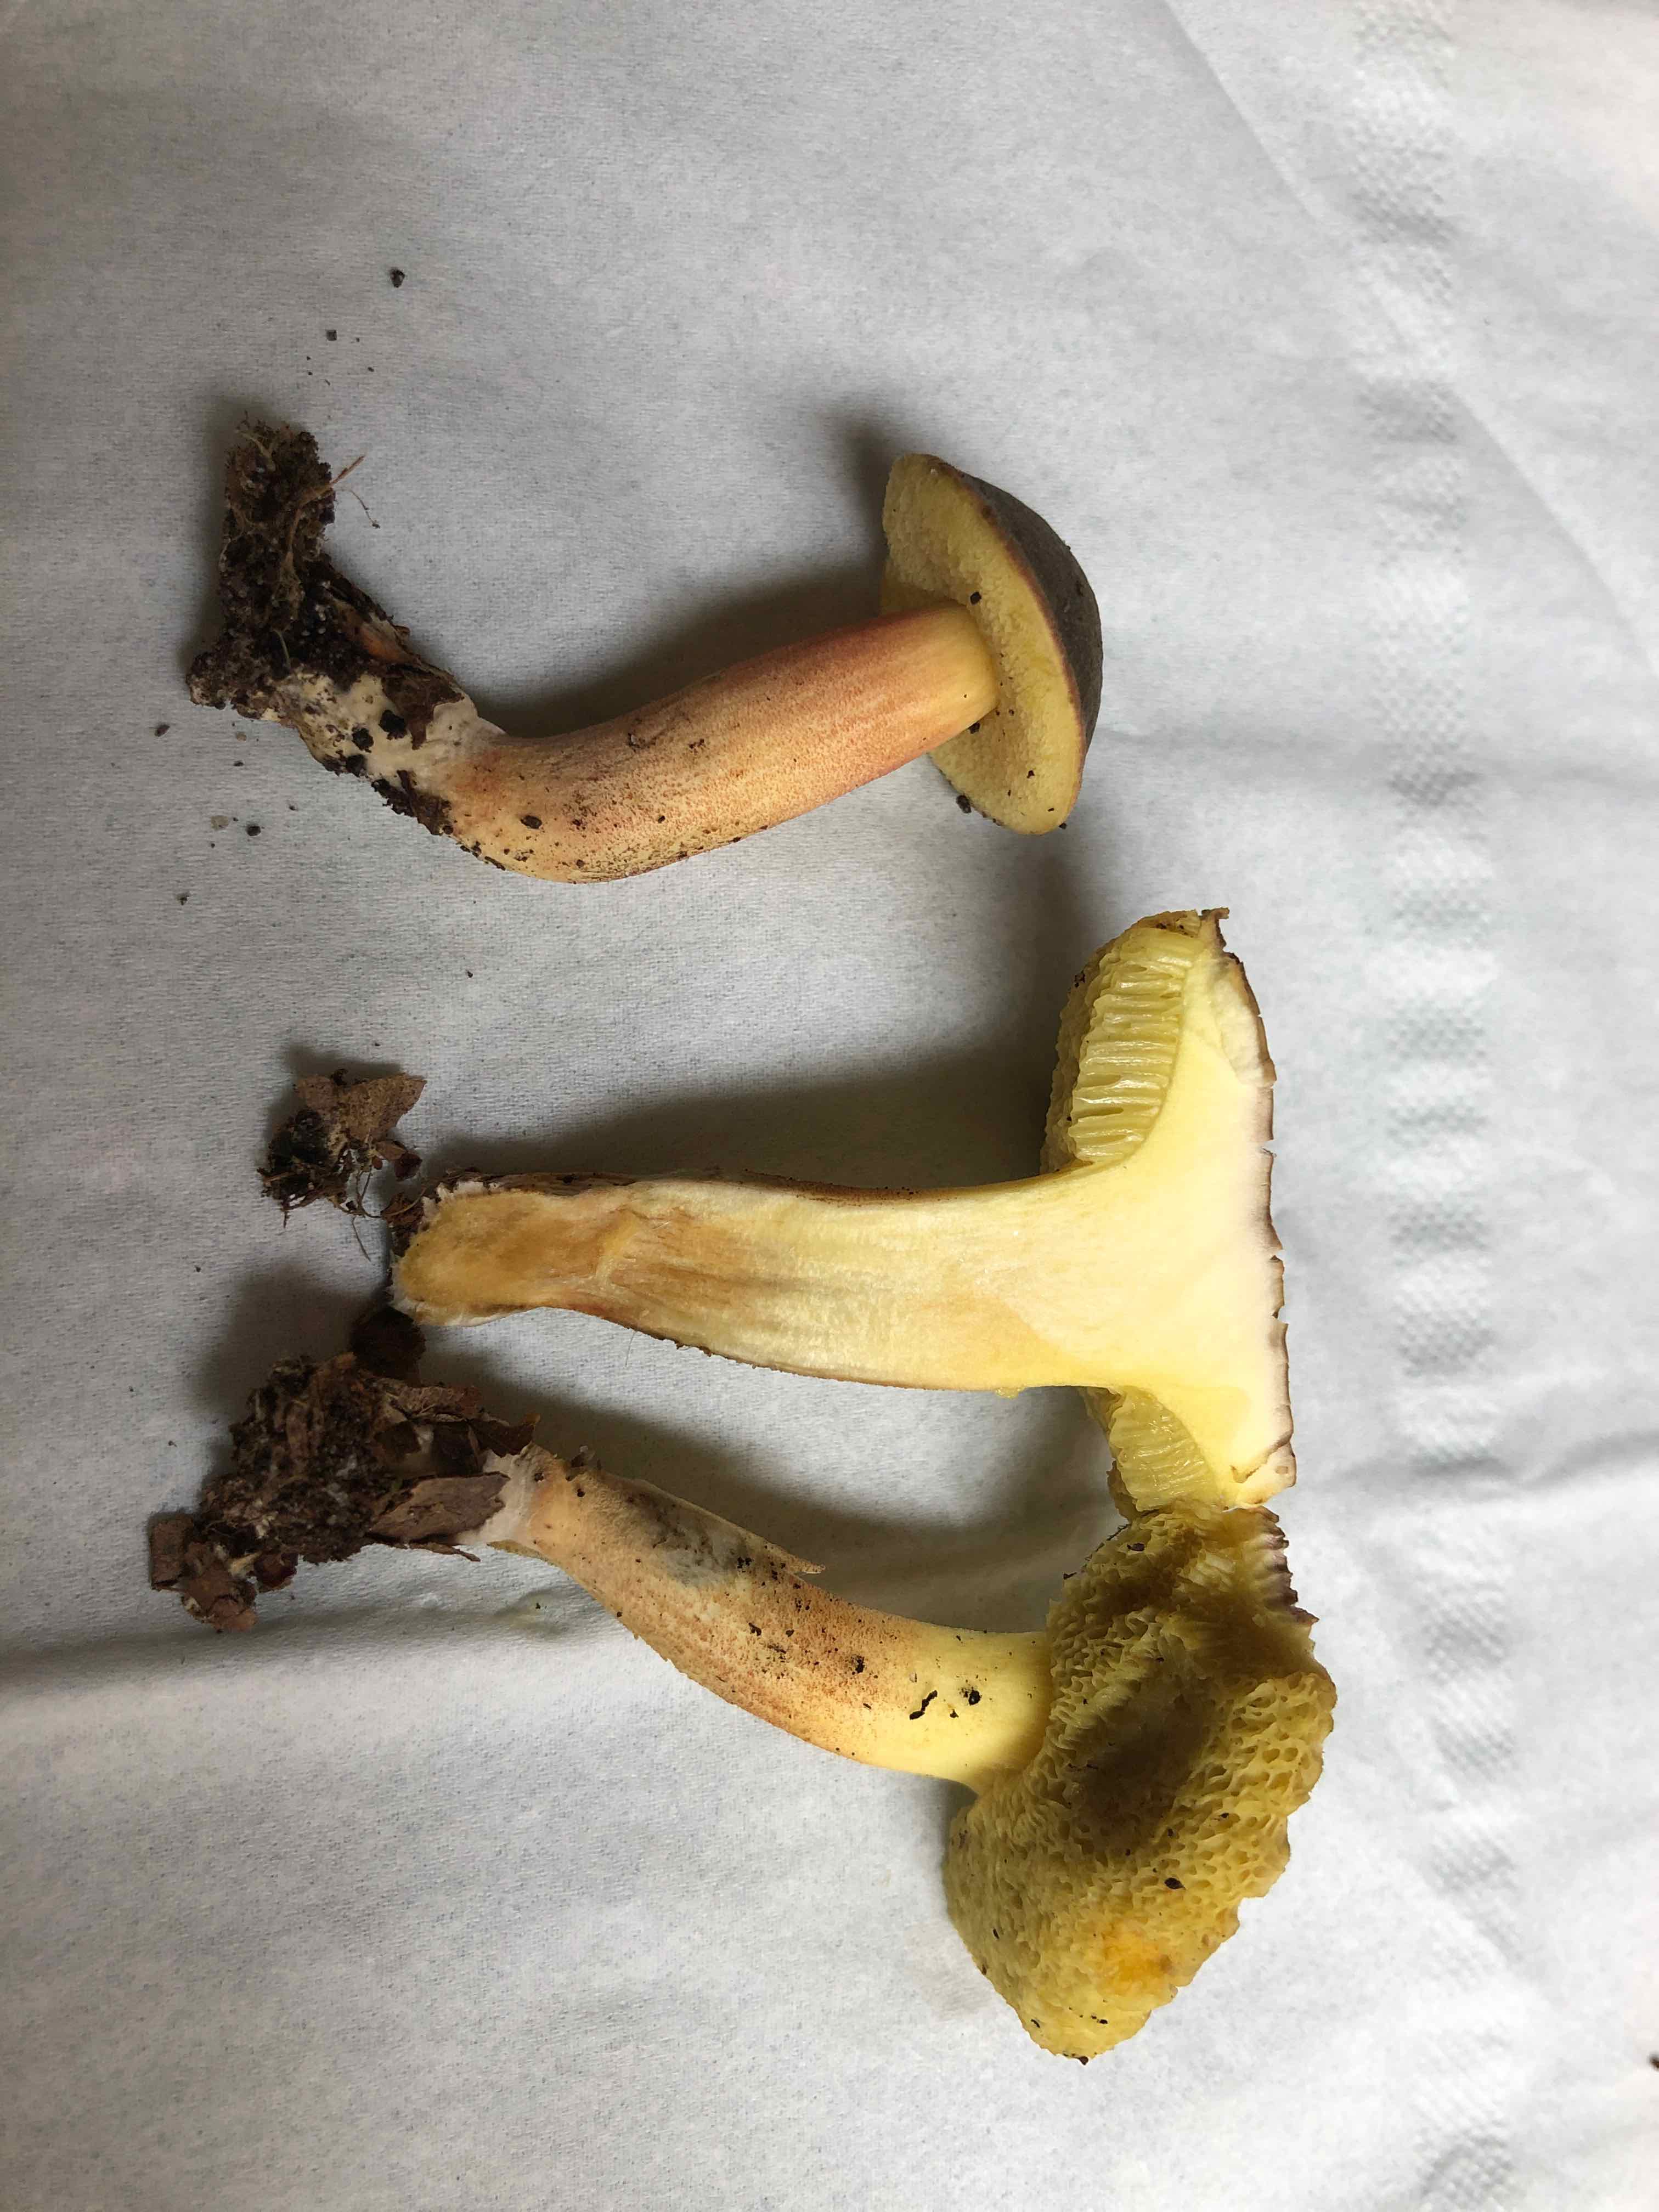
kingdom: Fungi
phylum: Basidiomycota
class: Agaricomycetes
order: Boletales
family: Boletaceae
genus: Xerocomellus
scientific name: Xerocomellus
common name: dværgrørhat
